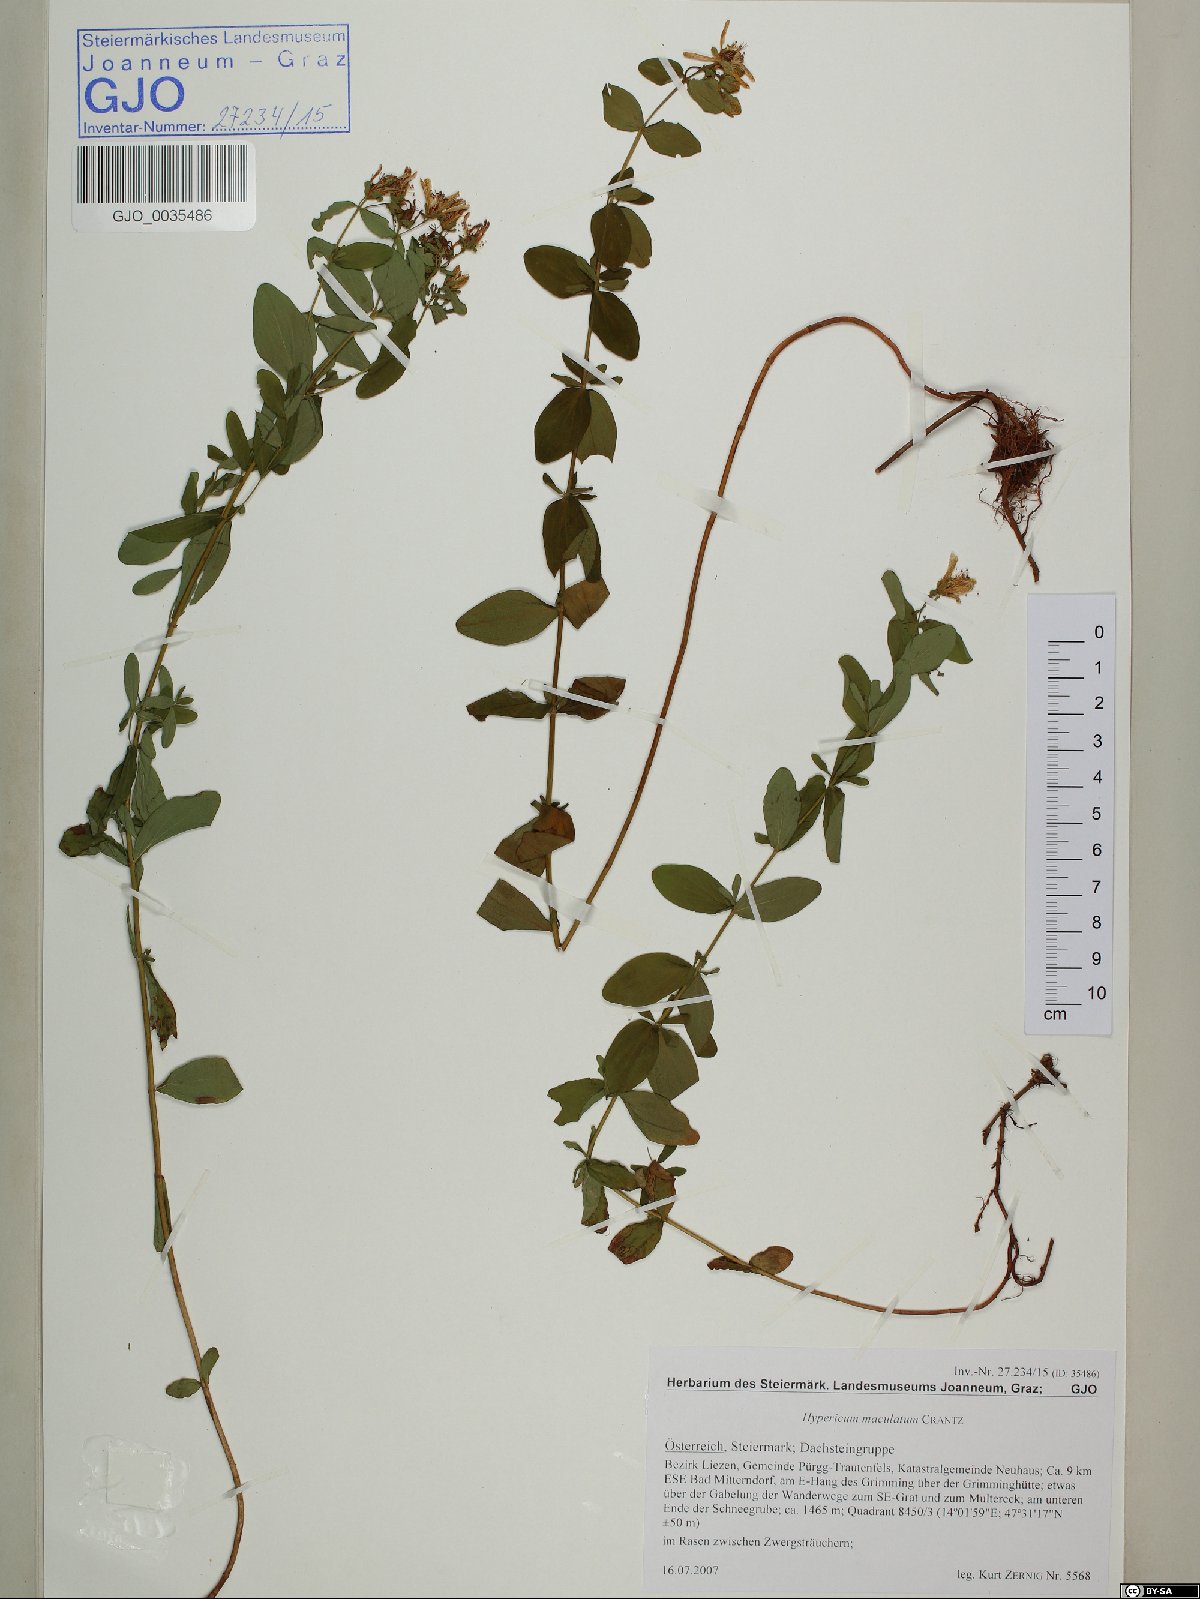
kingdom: Plantae
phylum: Tracheophyta
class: Magnoliopsida
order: Malpighiales
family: Hypericaceae
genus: Hypericum
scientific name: Hypericum maculatum
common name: Imperforate st. john's-wort
